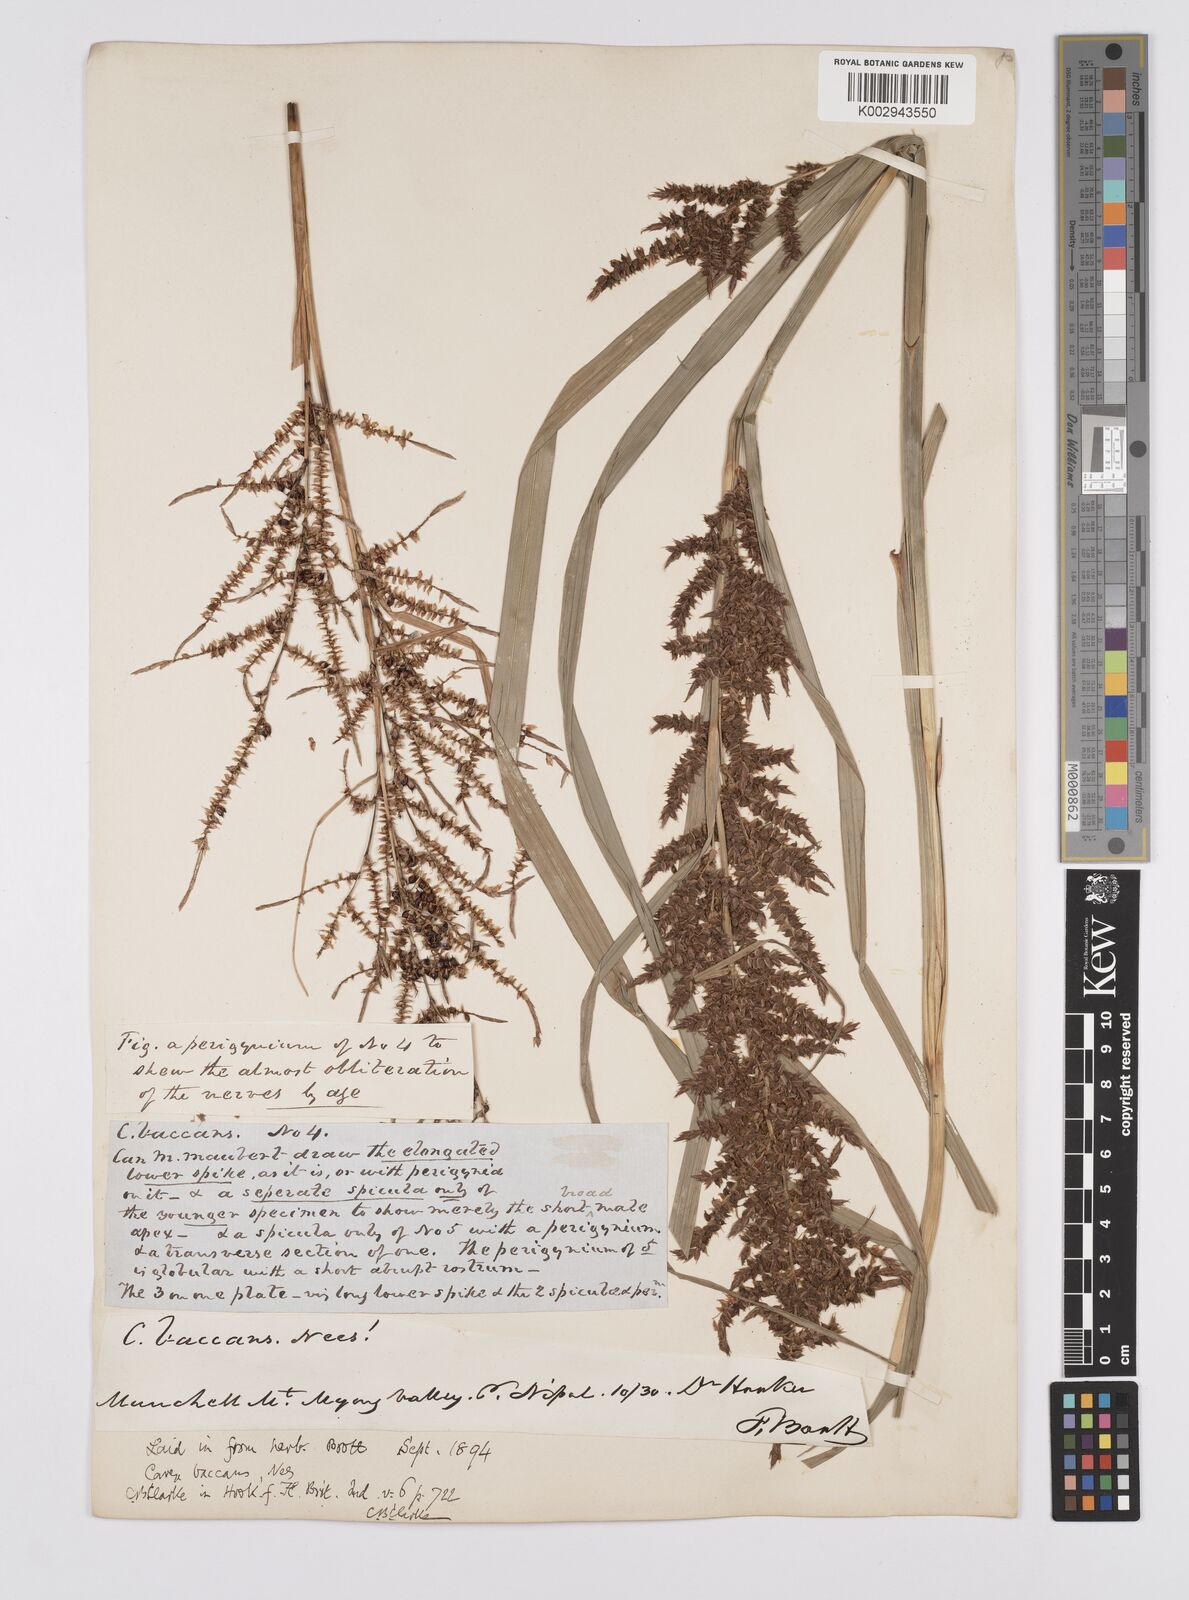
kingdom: Plantae
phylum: Tracheophyta
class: Liliopsida
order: Poales
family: Cyperaceae
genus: Carex
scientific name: Carex baccans
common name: Crimson seeded sedge
